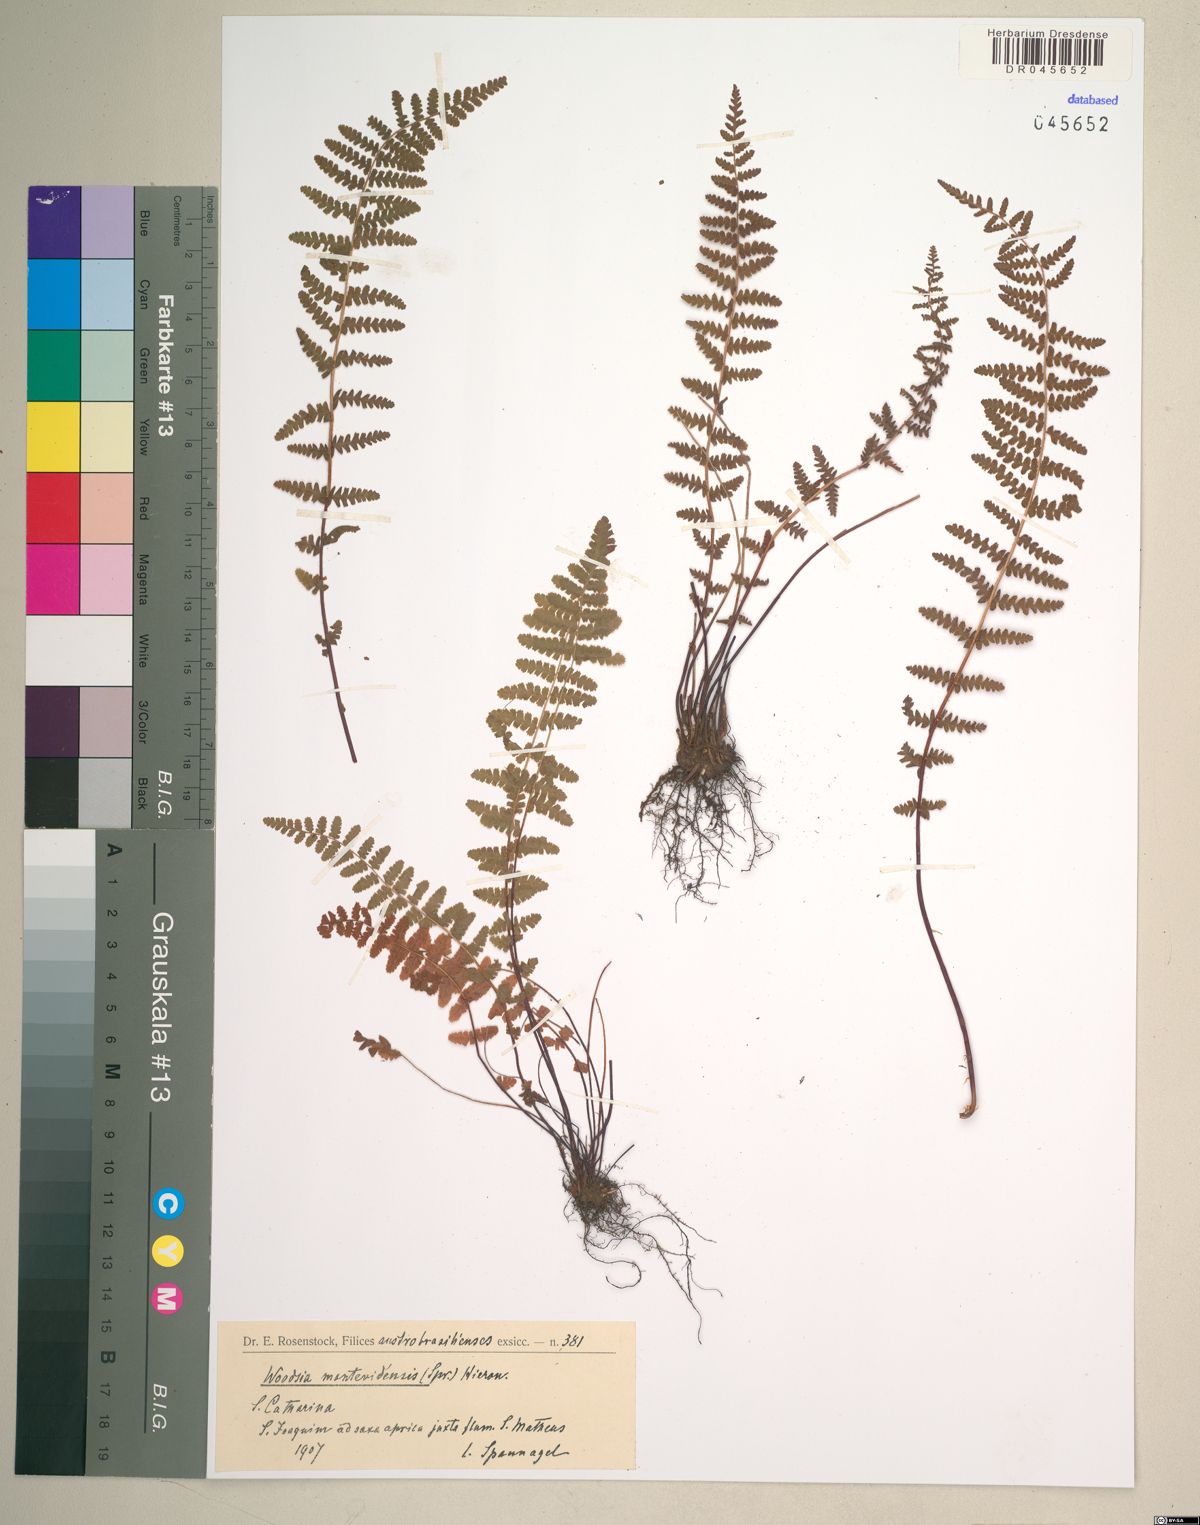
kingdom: Plantae
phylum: Tracheophyta
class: Polypodiopsida
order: Polypodiales
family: Woodsiaceae
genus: Physematium
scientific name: Physematium montevidense
